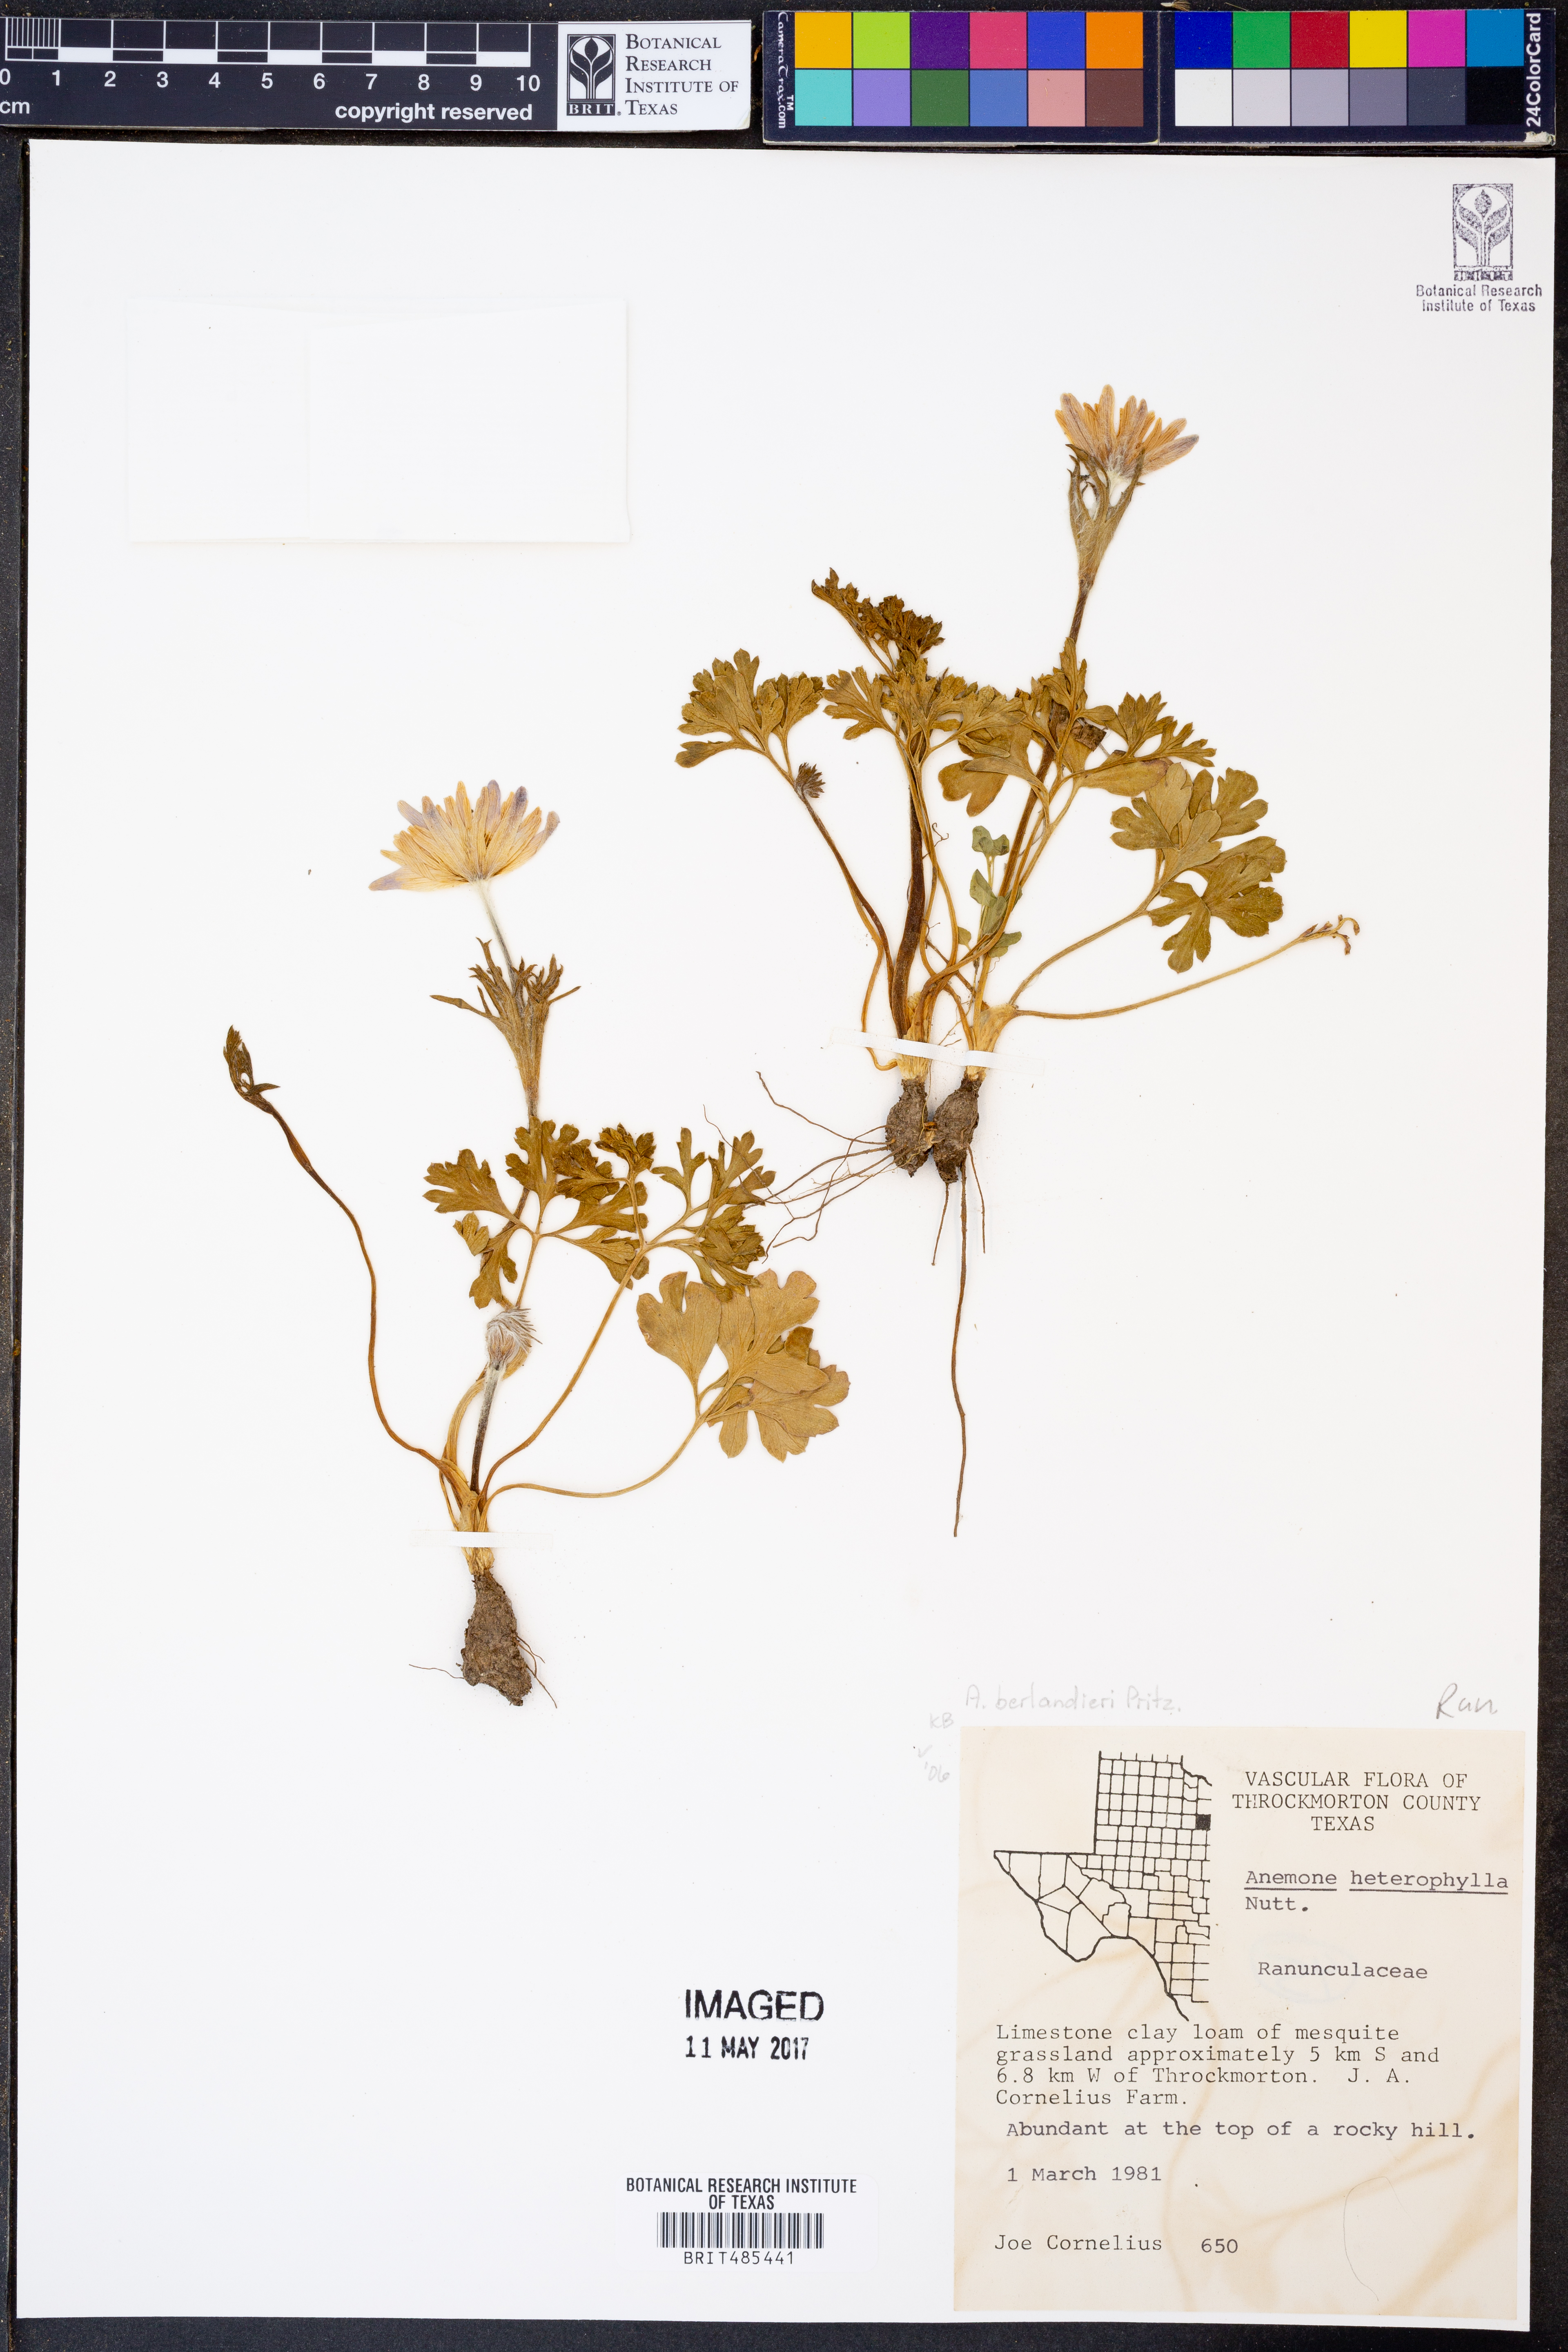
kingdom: Plantae
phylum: Tracheophyta
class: Magnoliopsida
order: Ranunculales
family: Ranunculaceae
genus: Anemone
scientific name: Anemone heterophylla
